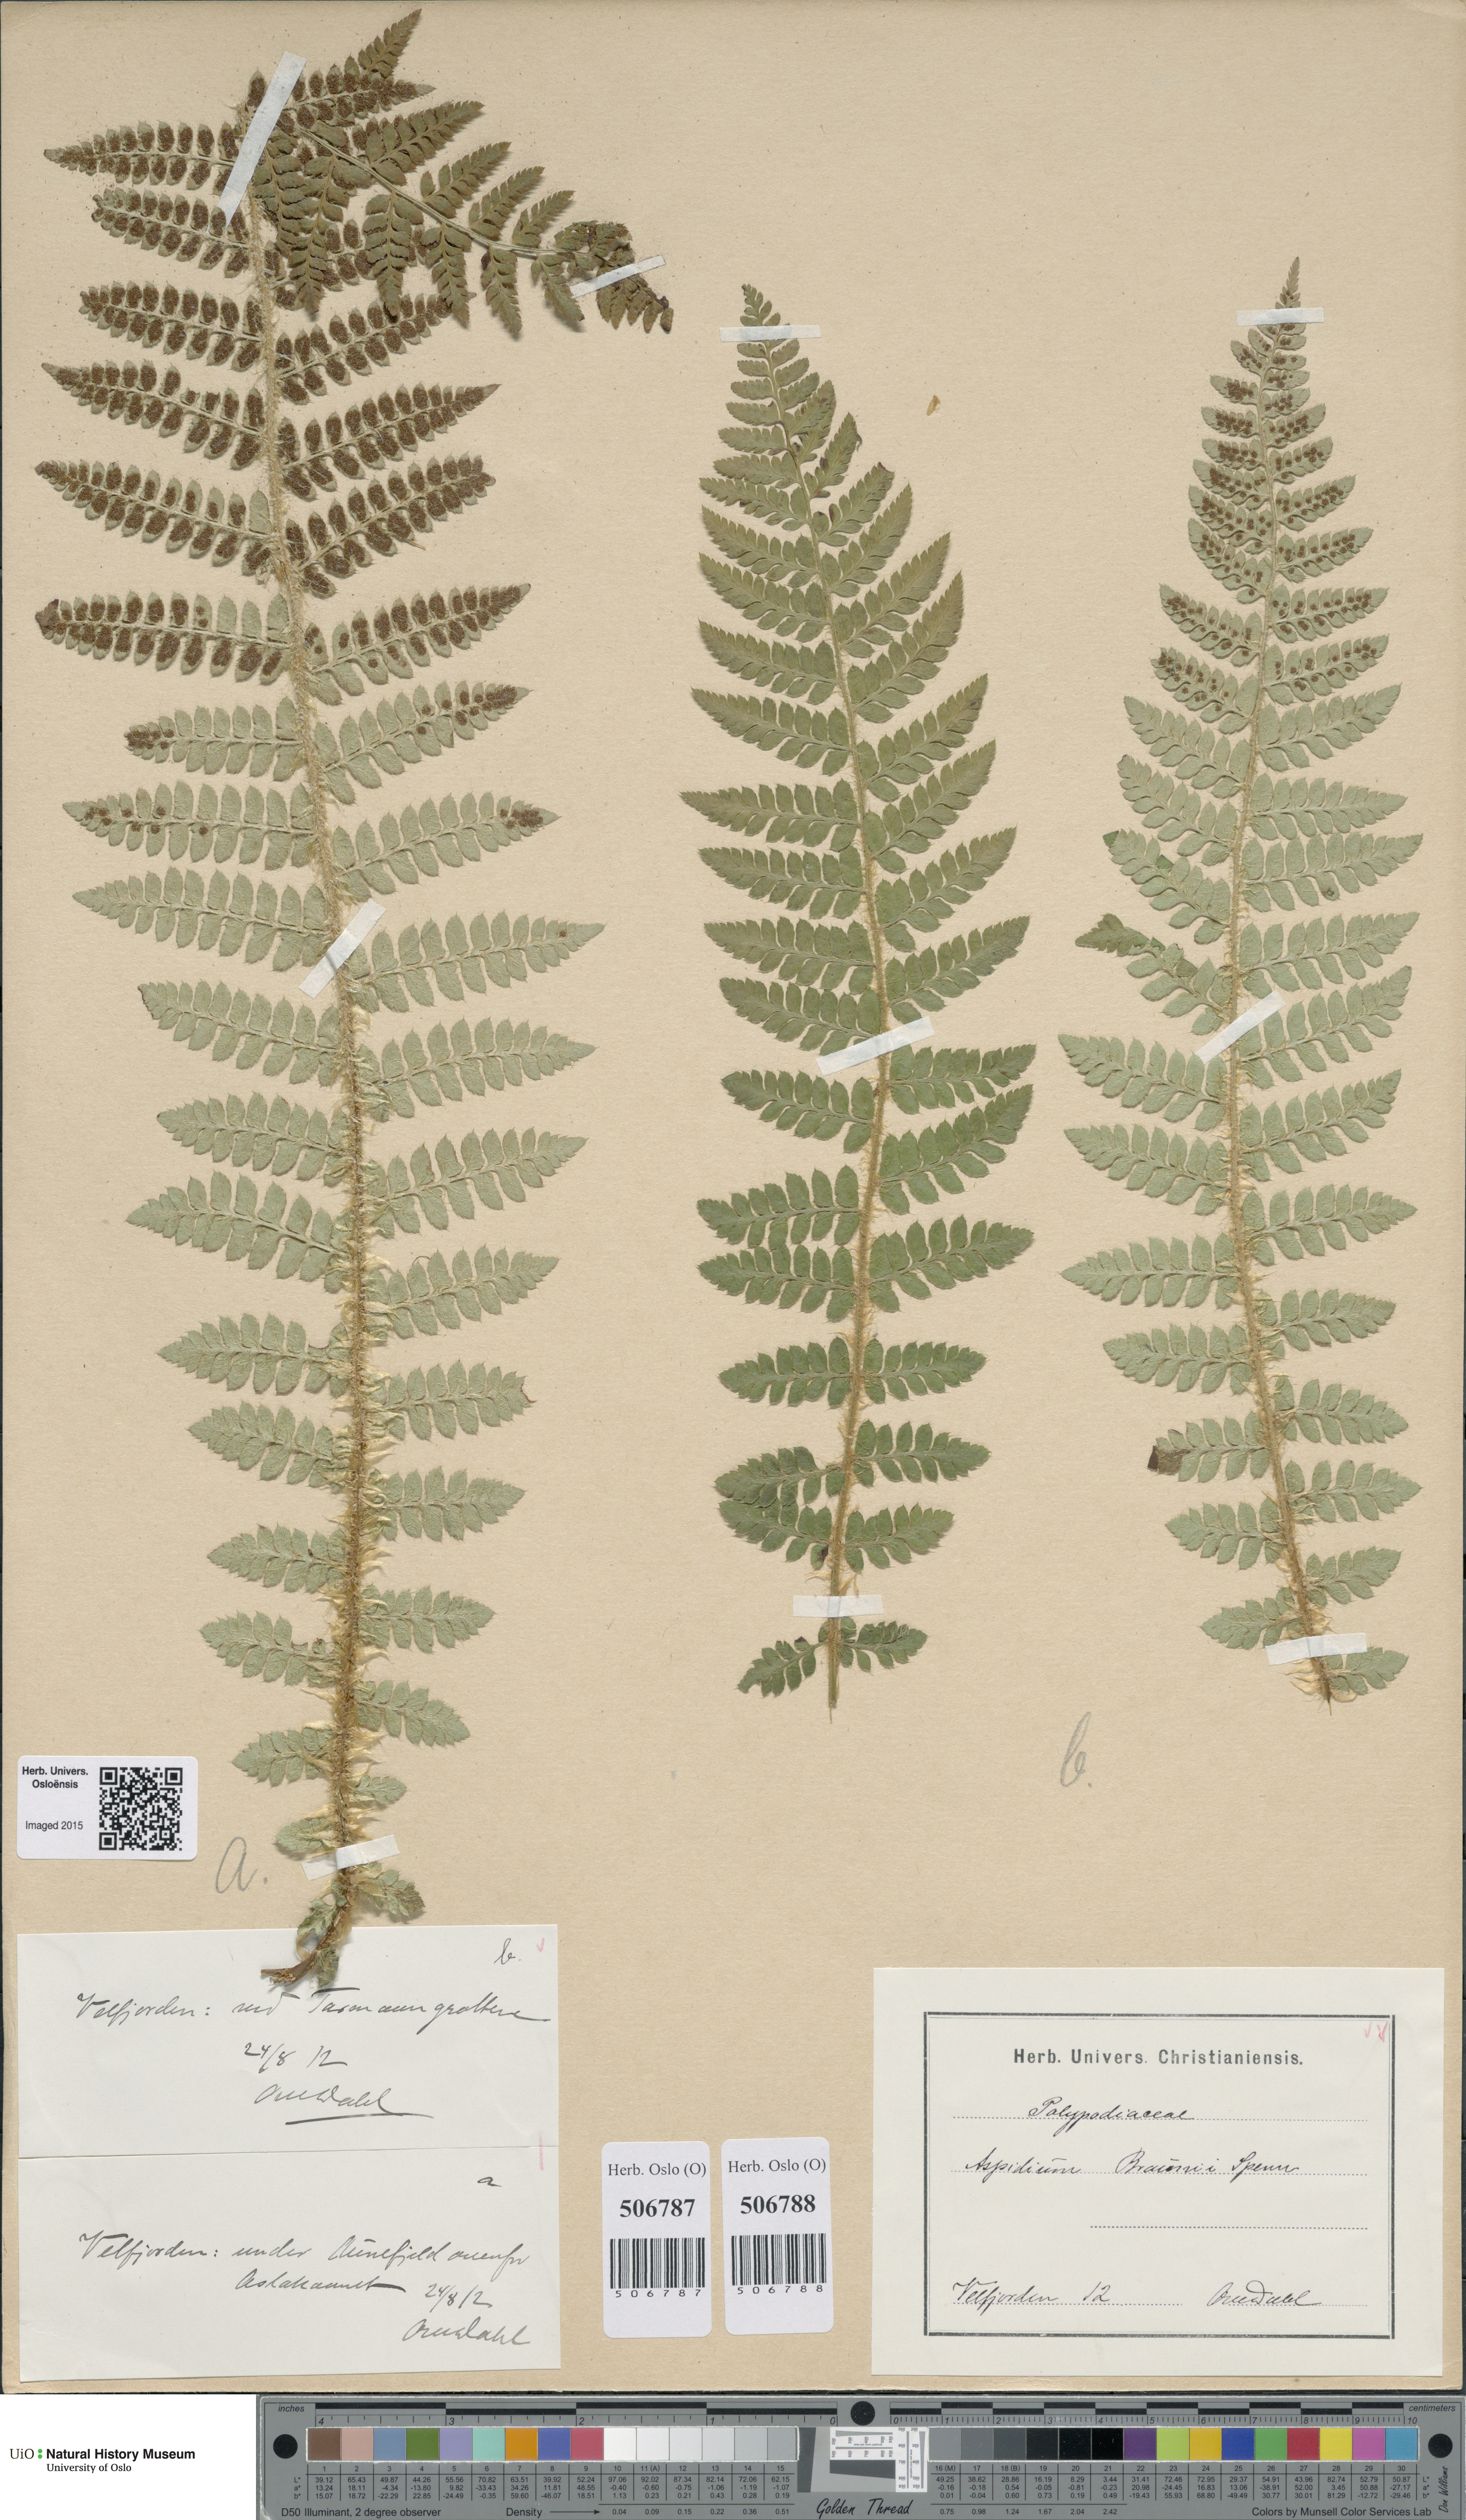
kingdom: Plantae
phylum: Tracheophyta
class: Polypodiopsida
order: Polypodiales
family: Dryopteridaceae
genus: Polystichum
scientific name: Polystichum braunii
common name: Braun's holly fern
